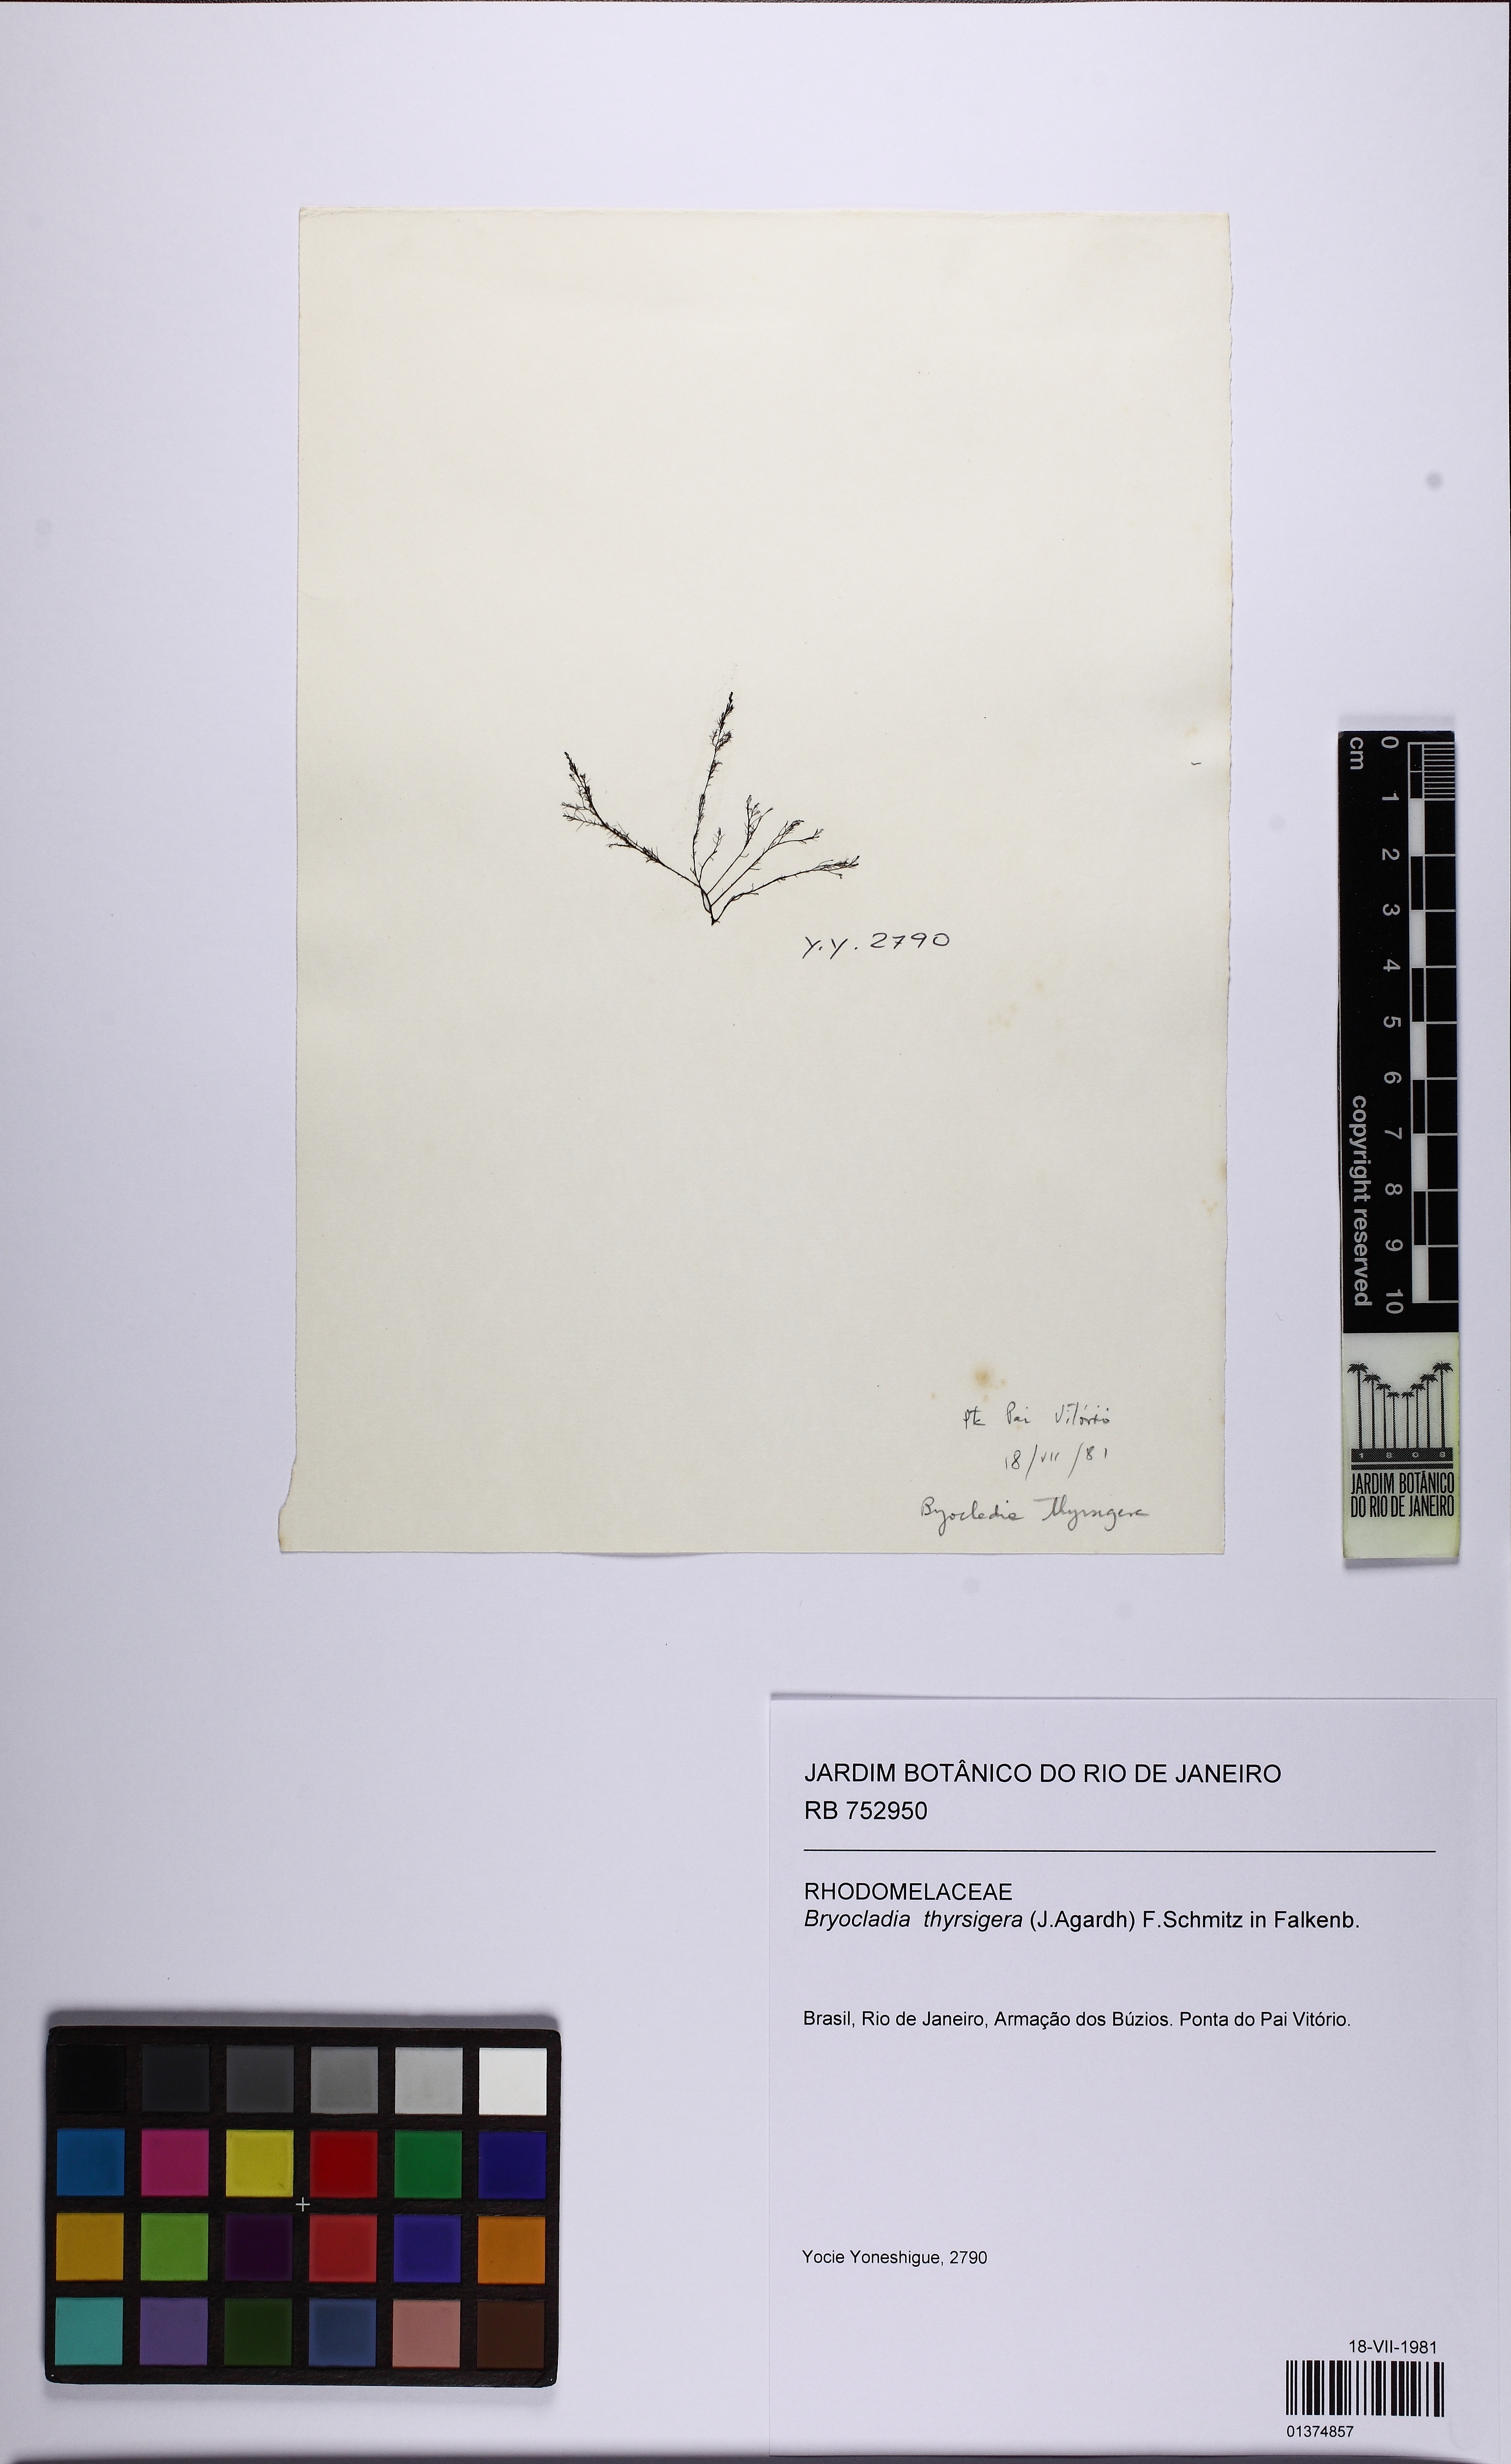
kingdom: Plantae
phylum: Rhodophyta
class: Florideophyceae
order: Ceramiales
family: Rhodomelaceae
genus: Bryocladia
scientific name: Bryocladia thyrsigera
